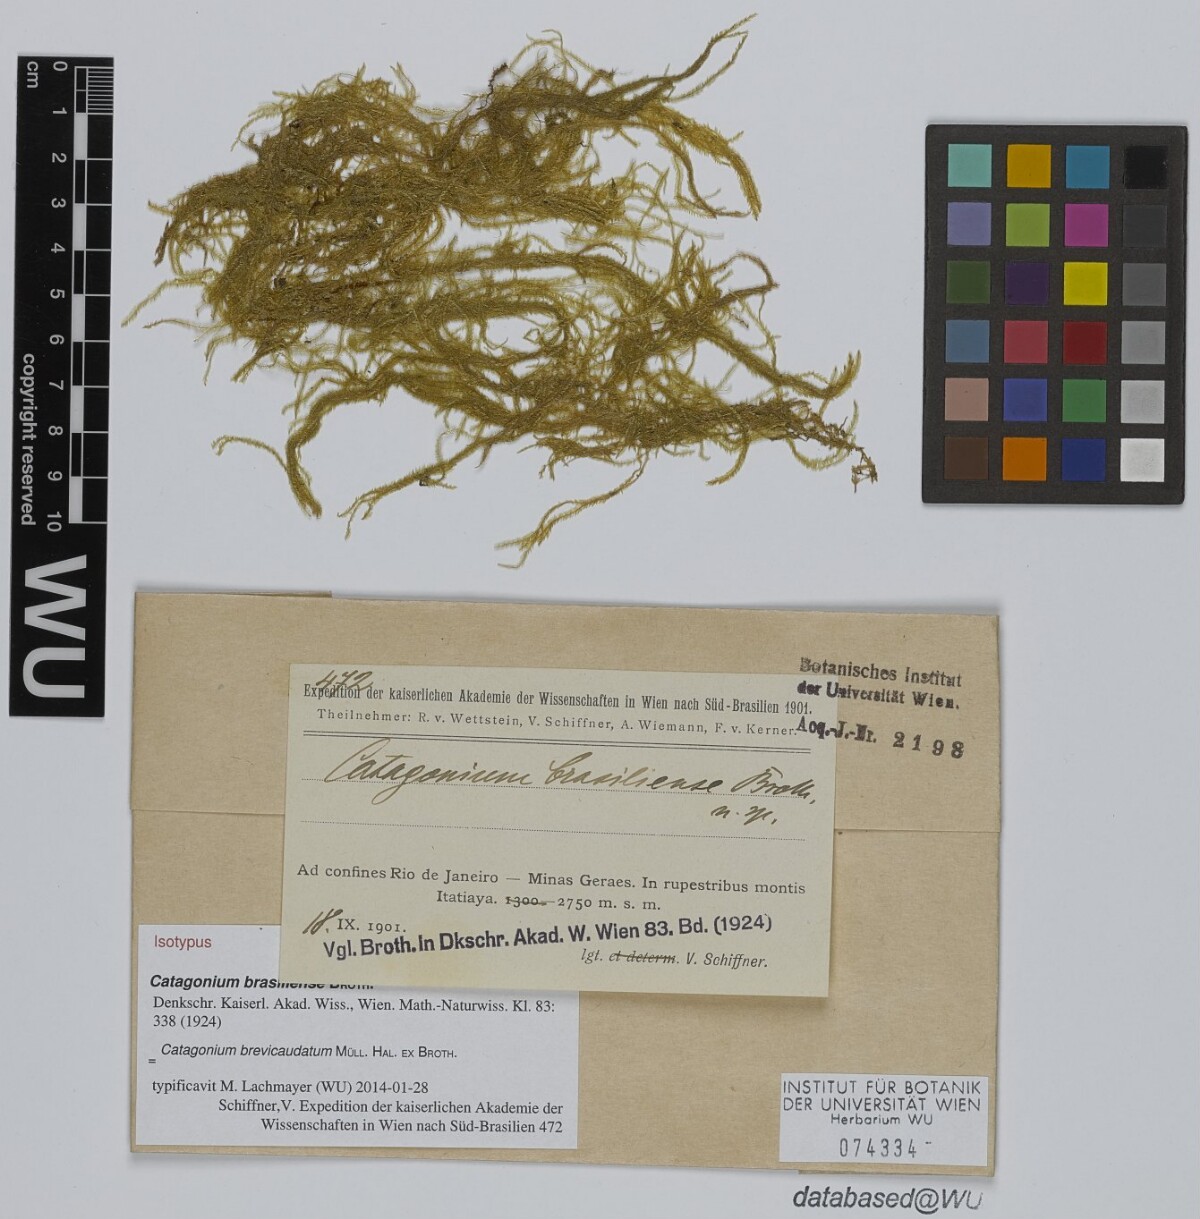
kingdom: Plantae
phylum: Bryophyta
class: Bryopsida
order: Hypnales
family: Catagoniaceae
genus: Catagonium
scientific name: Catagonium brevicaudatum
